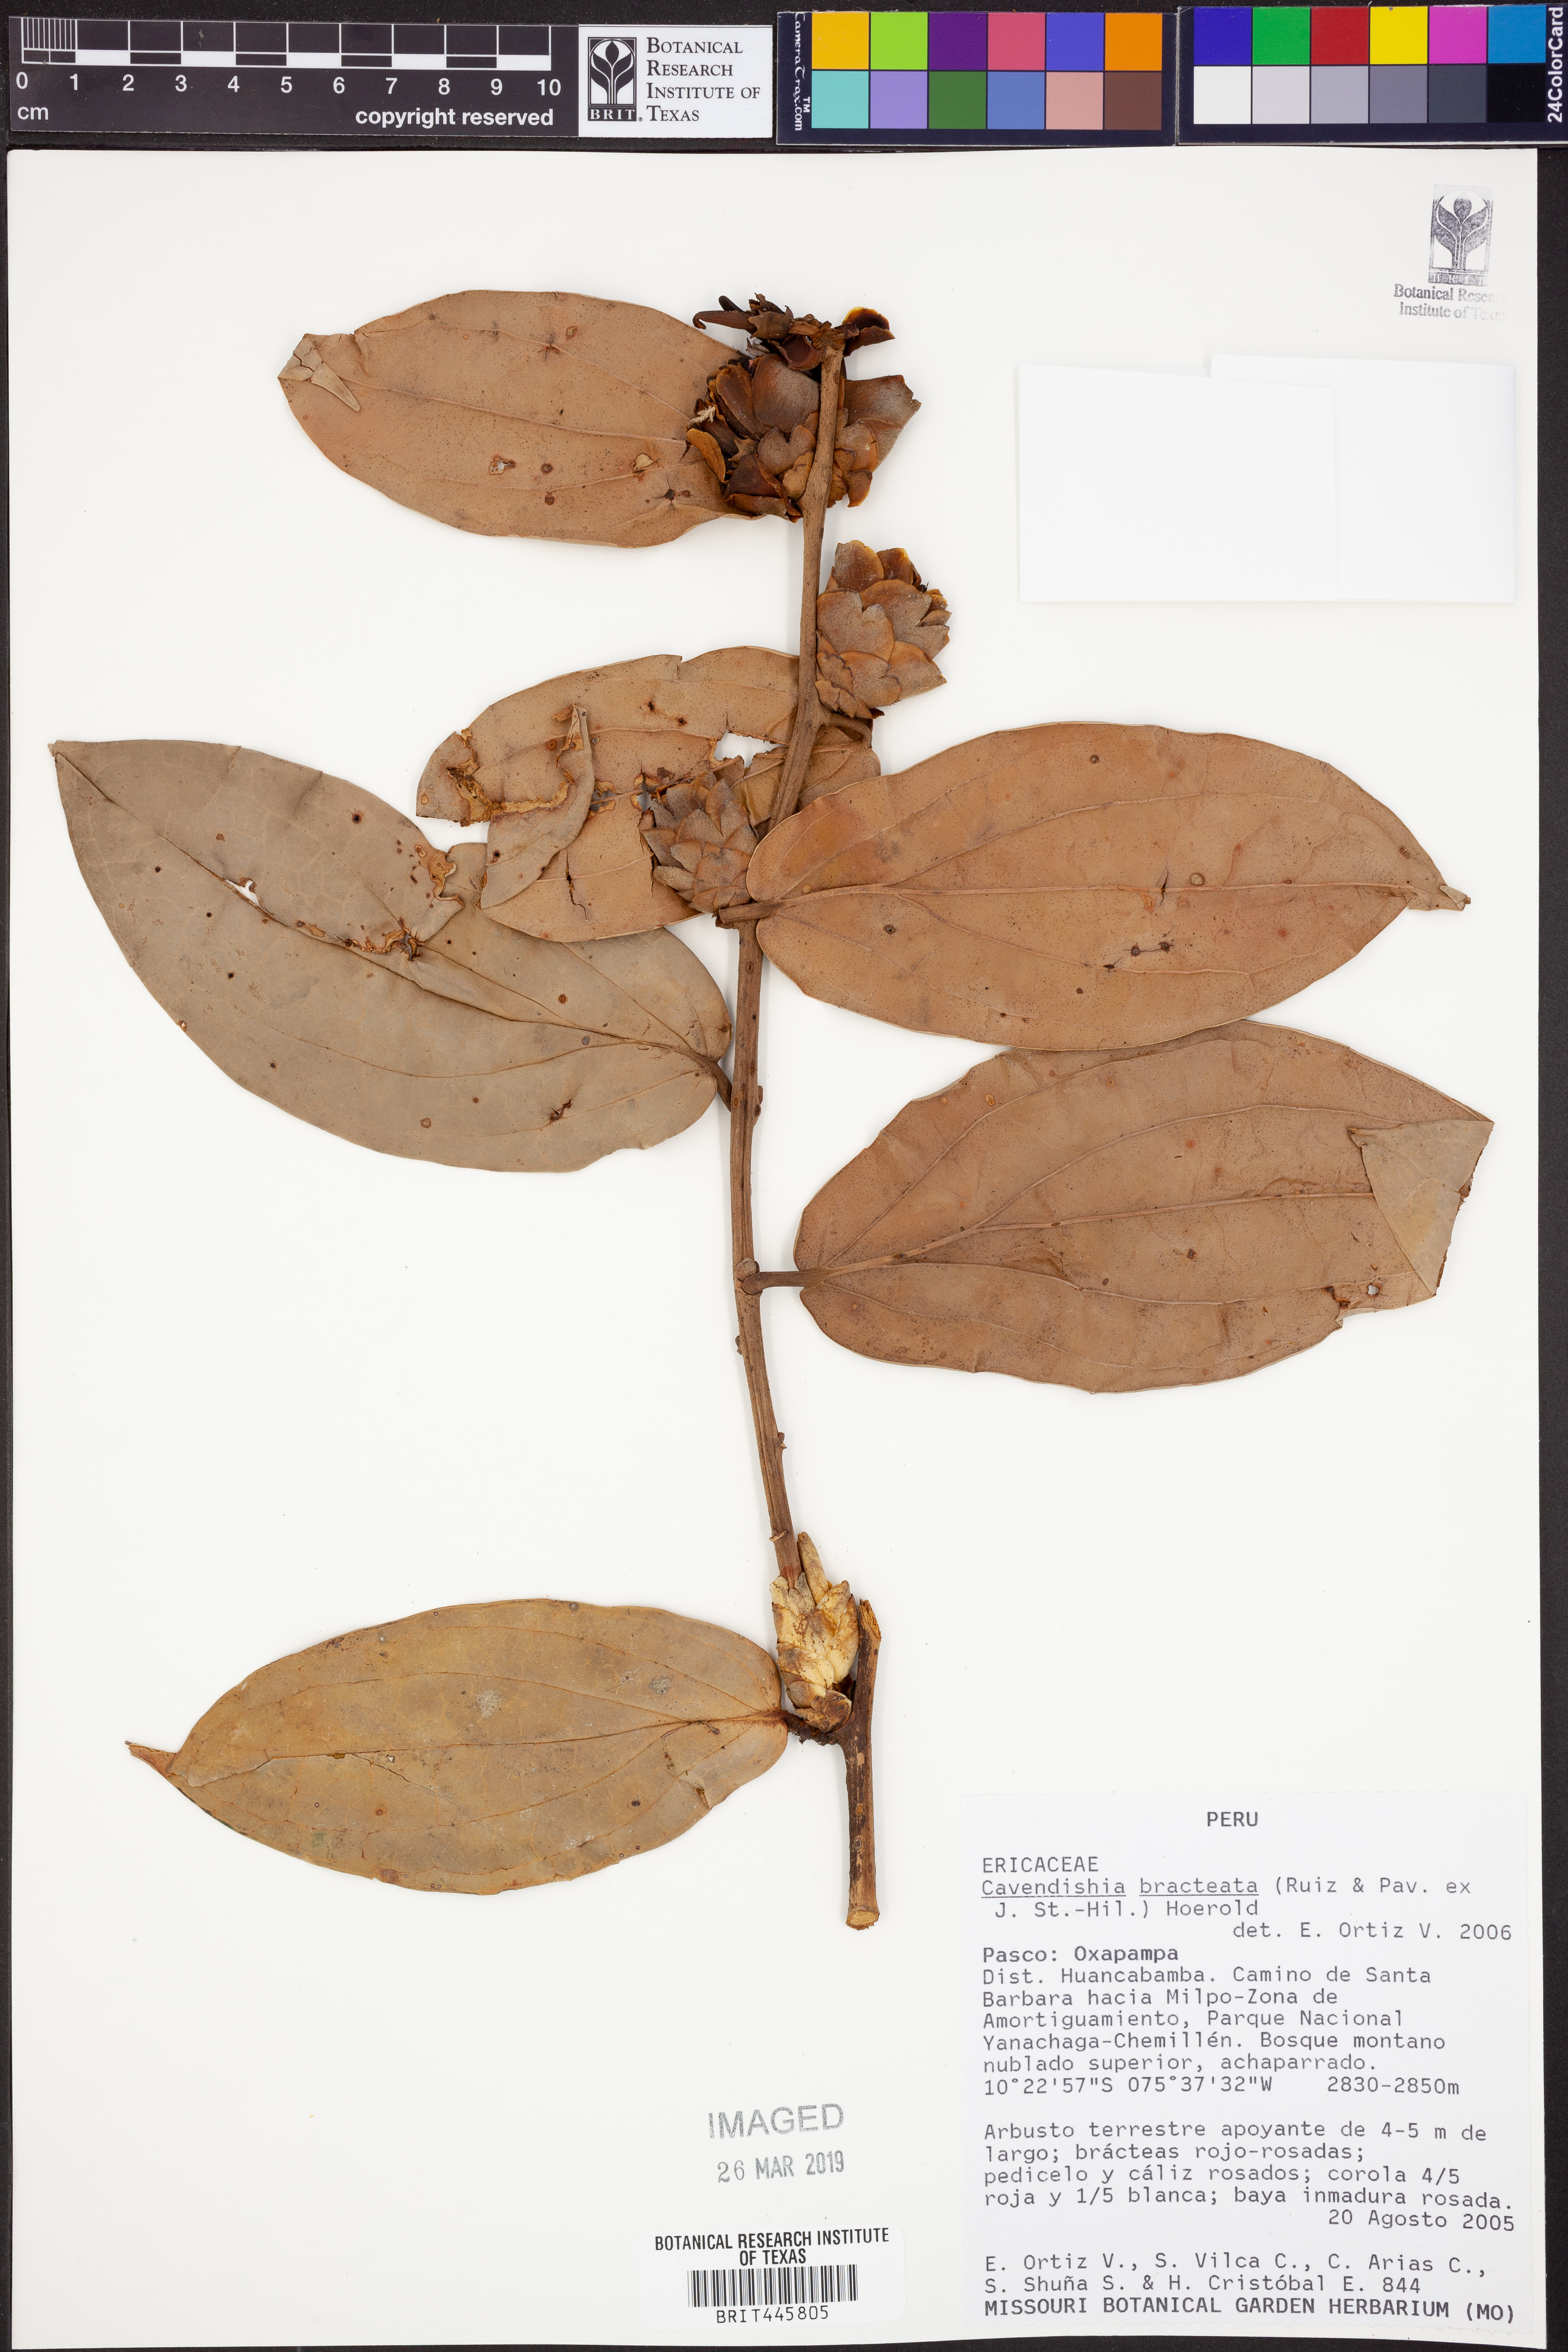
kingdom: Plantae
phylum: Tracheophyta
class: Magnoliopsida
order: Ericales
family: Ericaceae
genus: Cavendishia
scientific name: Cavendishia bracteata
